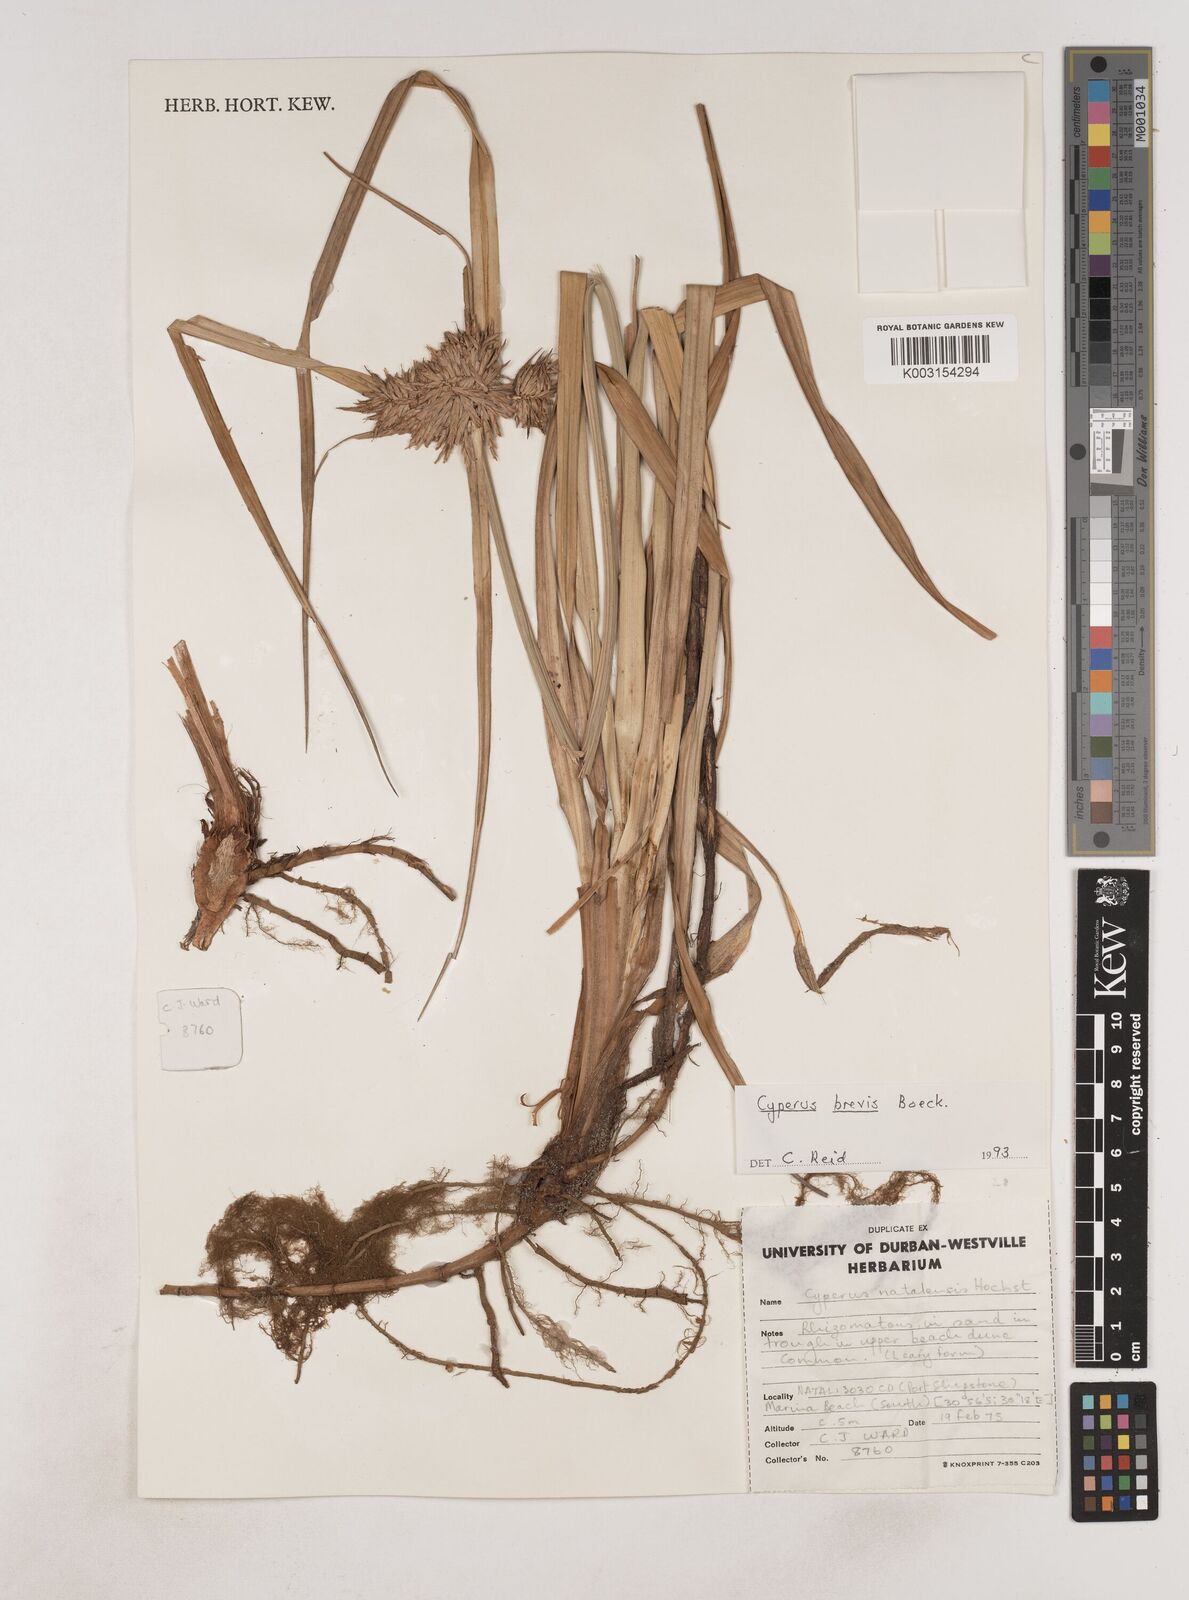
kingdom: Plantae
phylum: Tracheophyta
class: Liliopsida
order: Poales
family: Cyperaceae
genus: Cyperus
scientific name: Cyperus congestus
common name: Dense flat sedge
